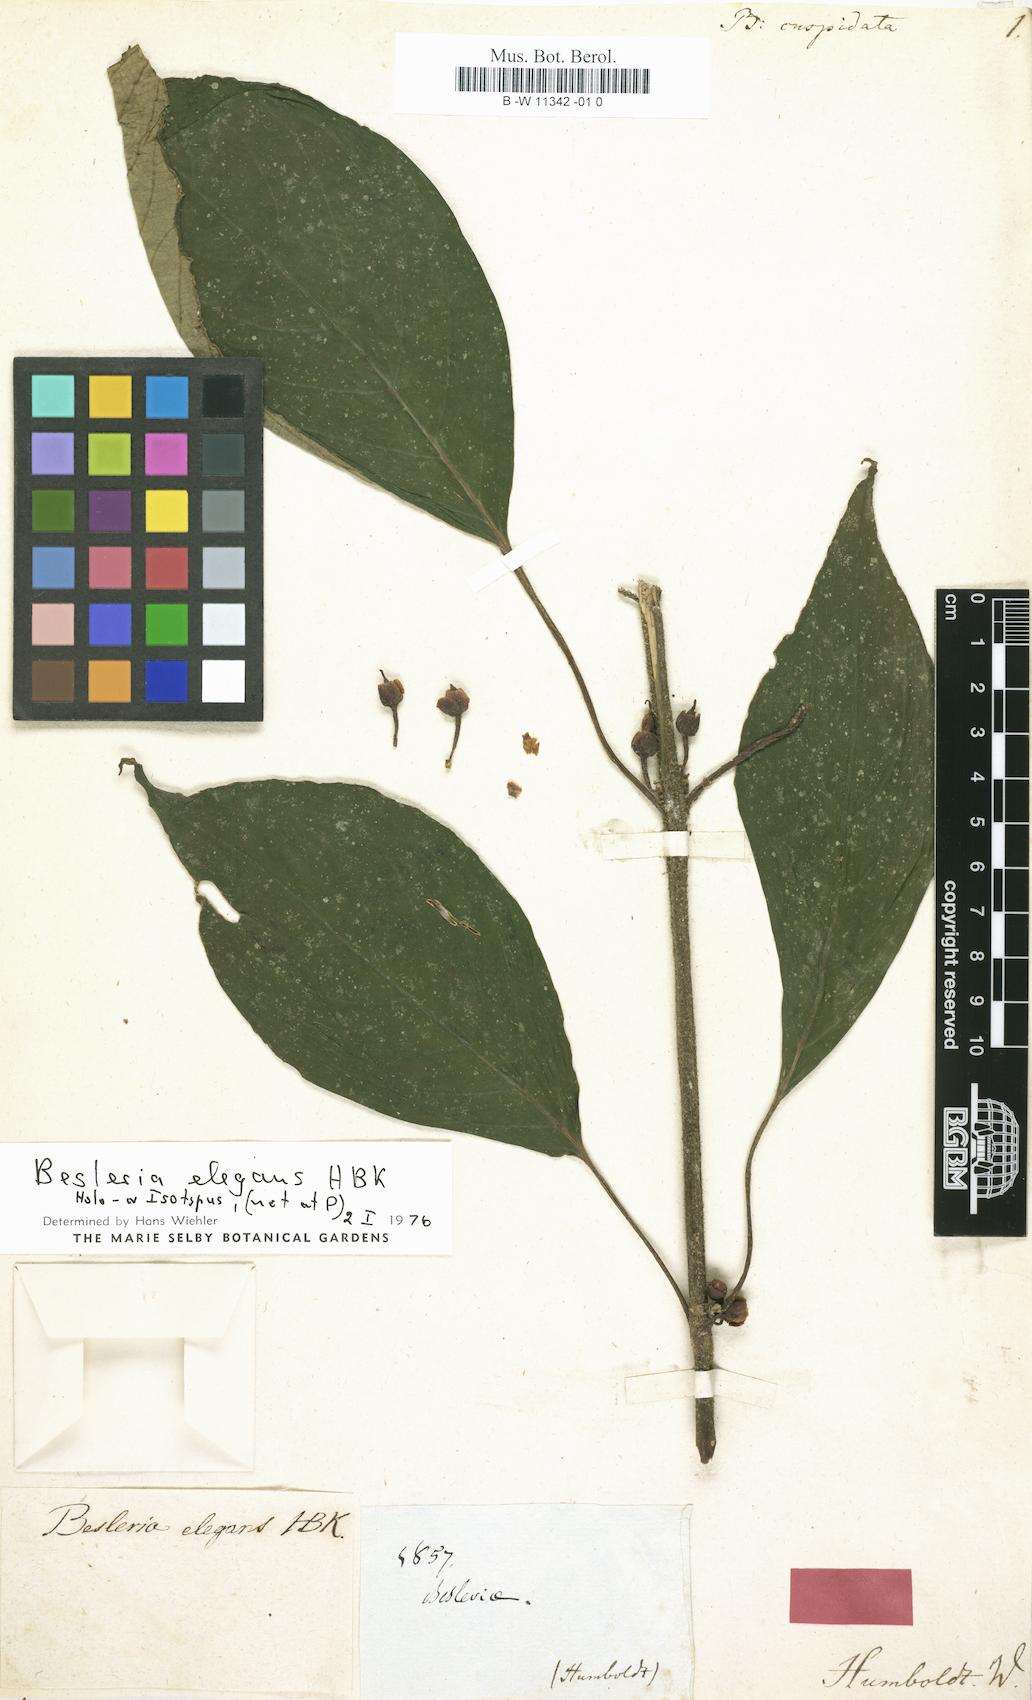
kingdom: Plantae
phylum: Tracheophyta
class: Magnoliopsida
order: Lamiales
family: Gesneriaceae
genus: Besleria
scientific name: Besleria
